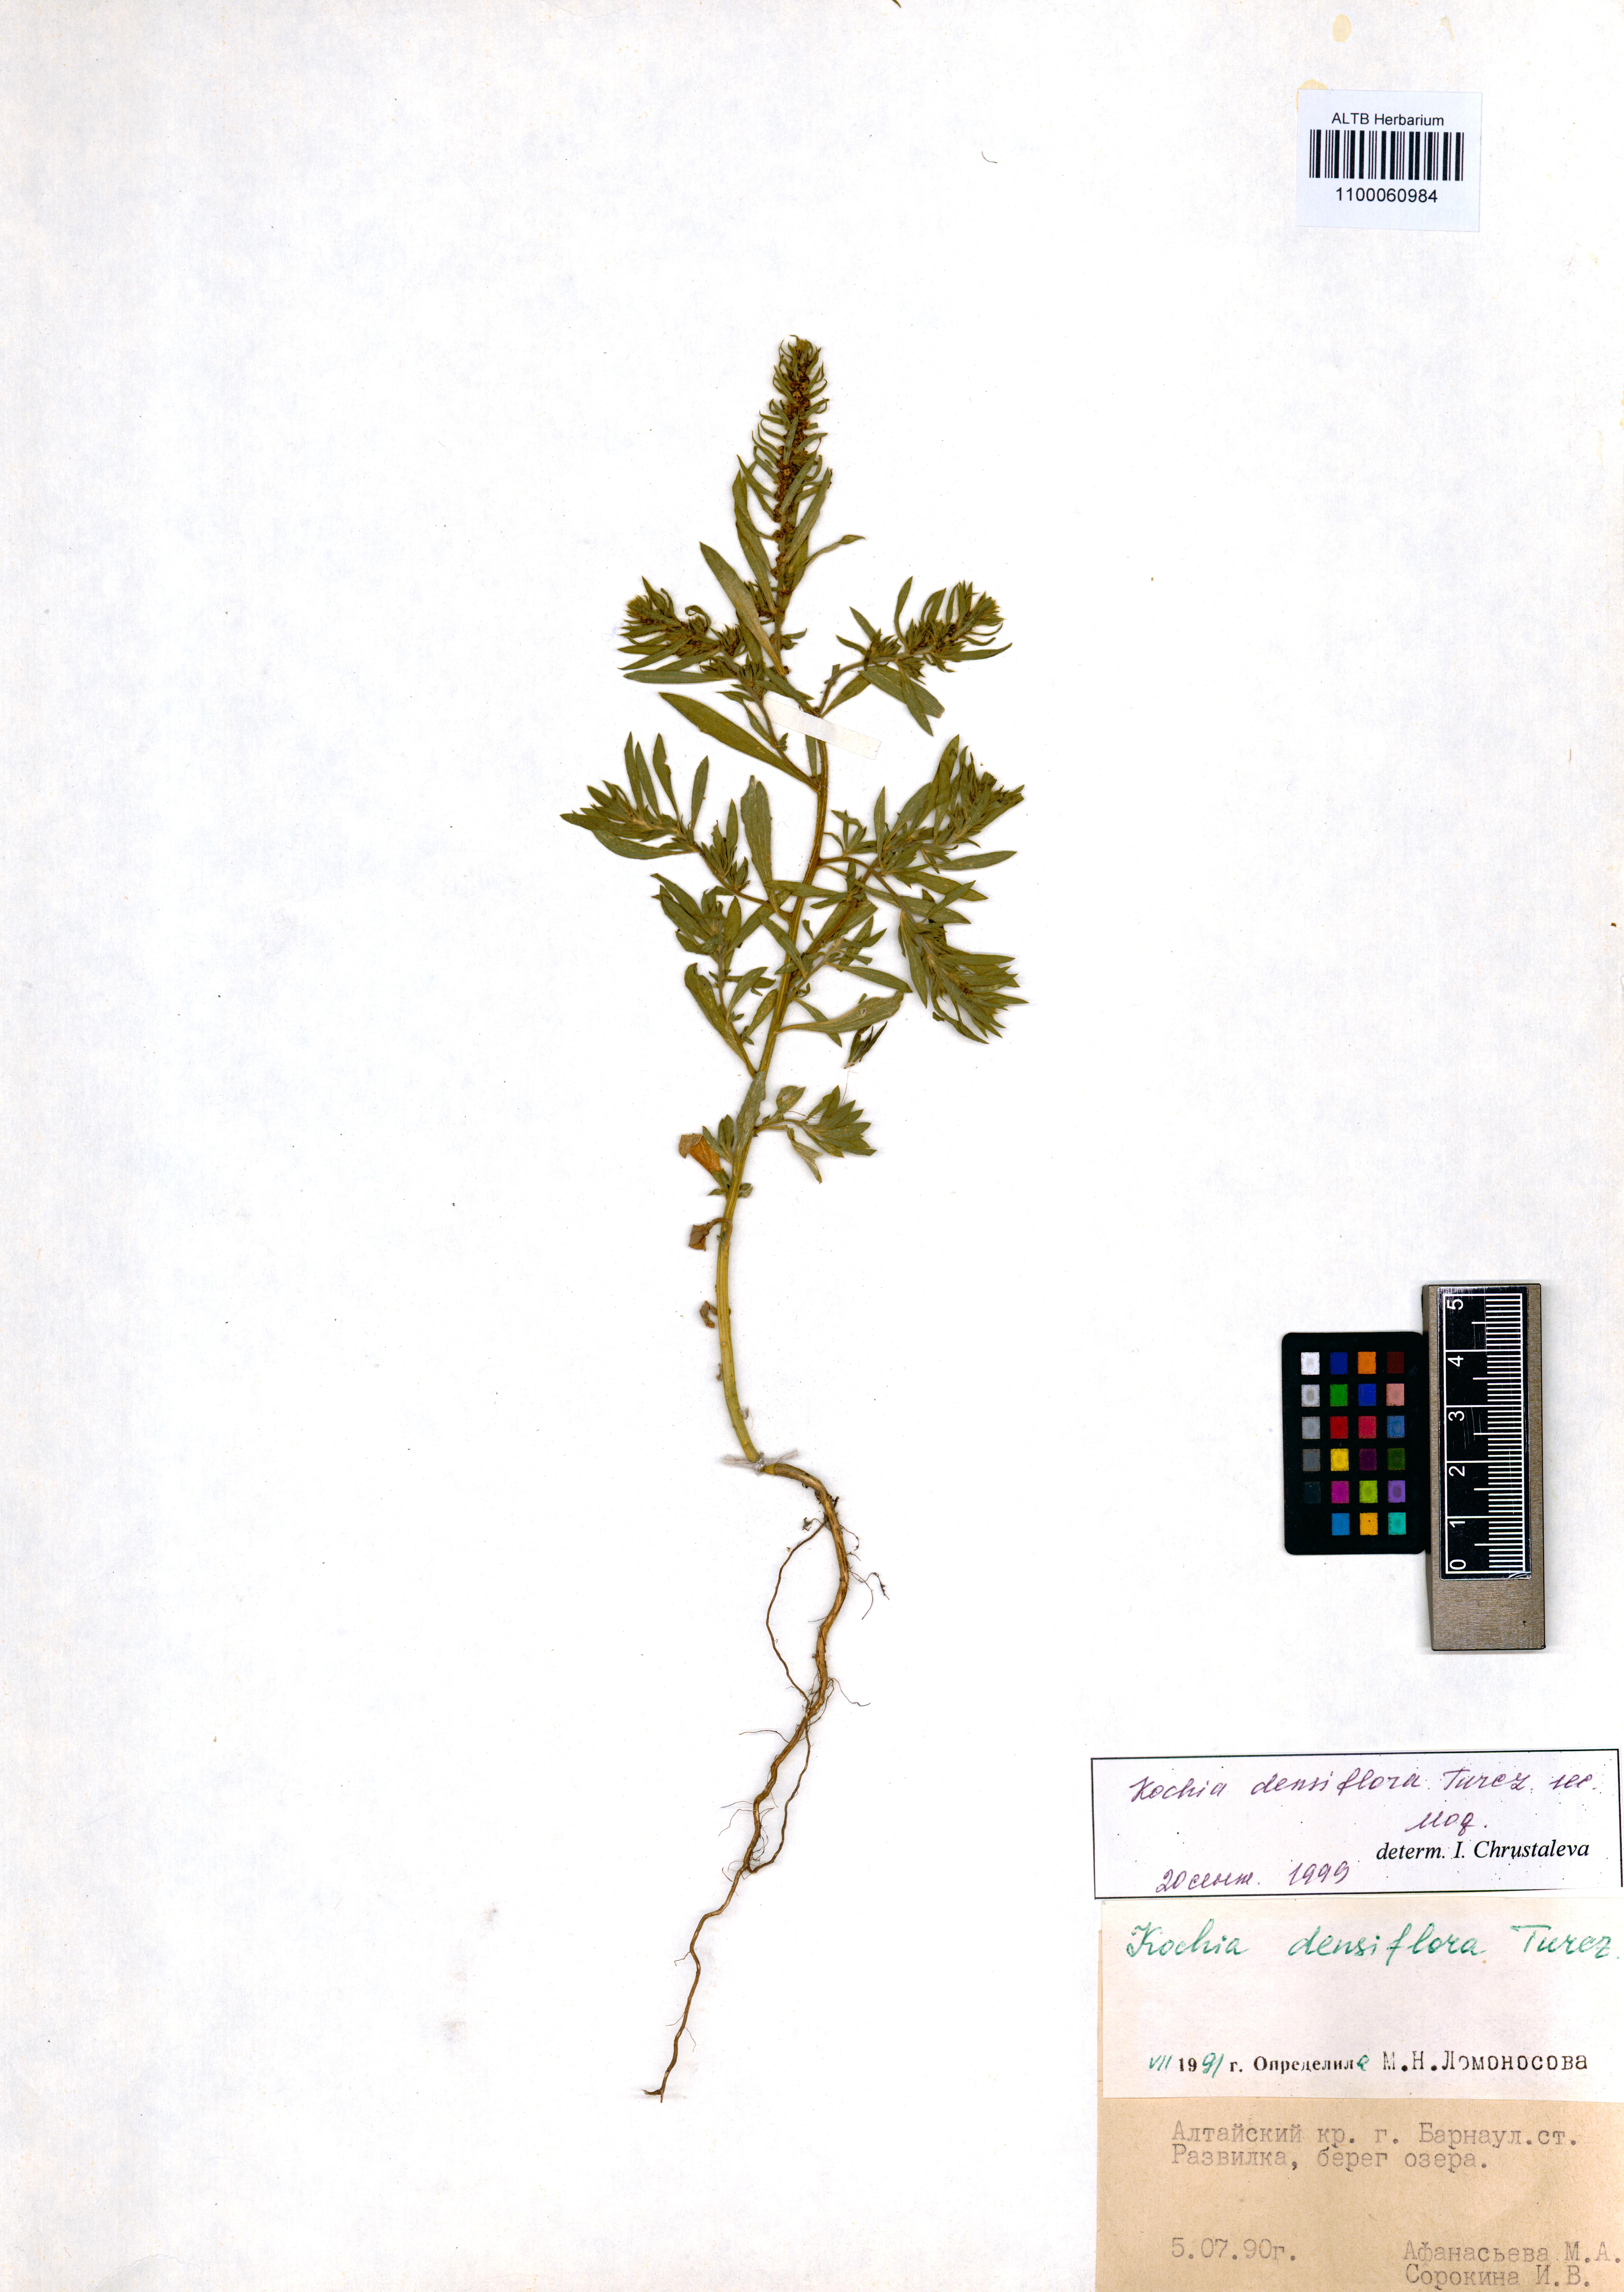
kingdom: Plantae
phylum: Tracheophyta
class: Magnoliopsida
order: Caryophyllales
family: Amaranthaceae
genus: Bassia
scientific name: Bassia scoparia
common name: Belvedere
